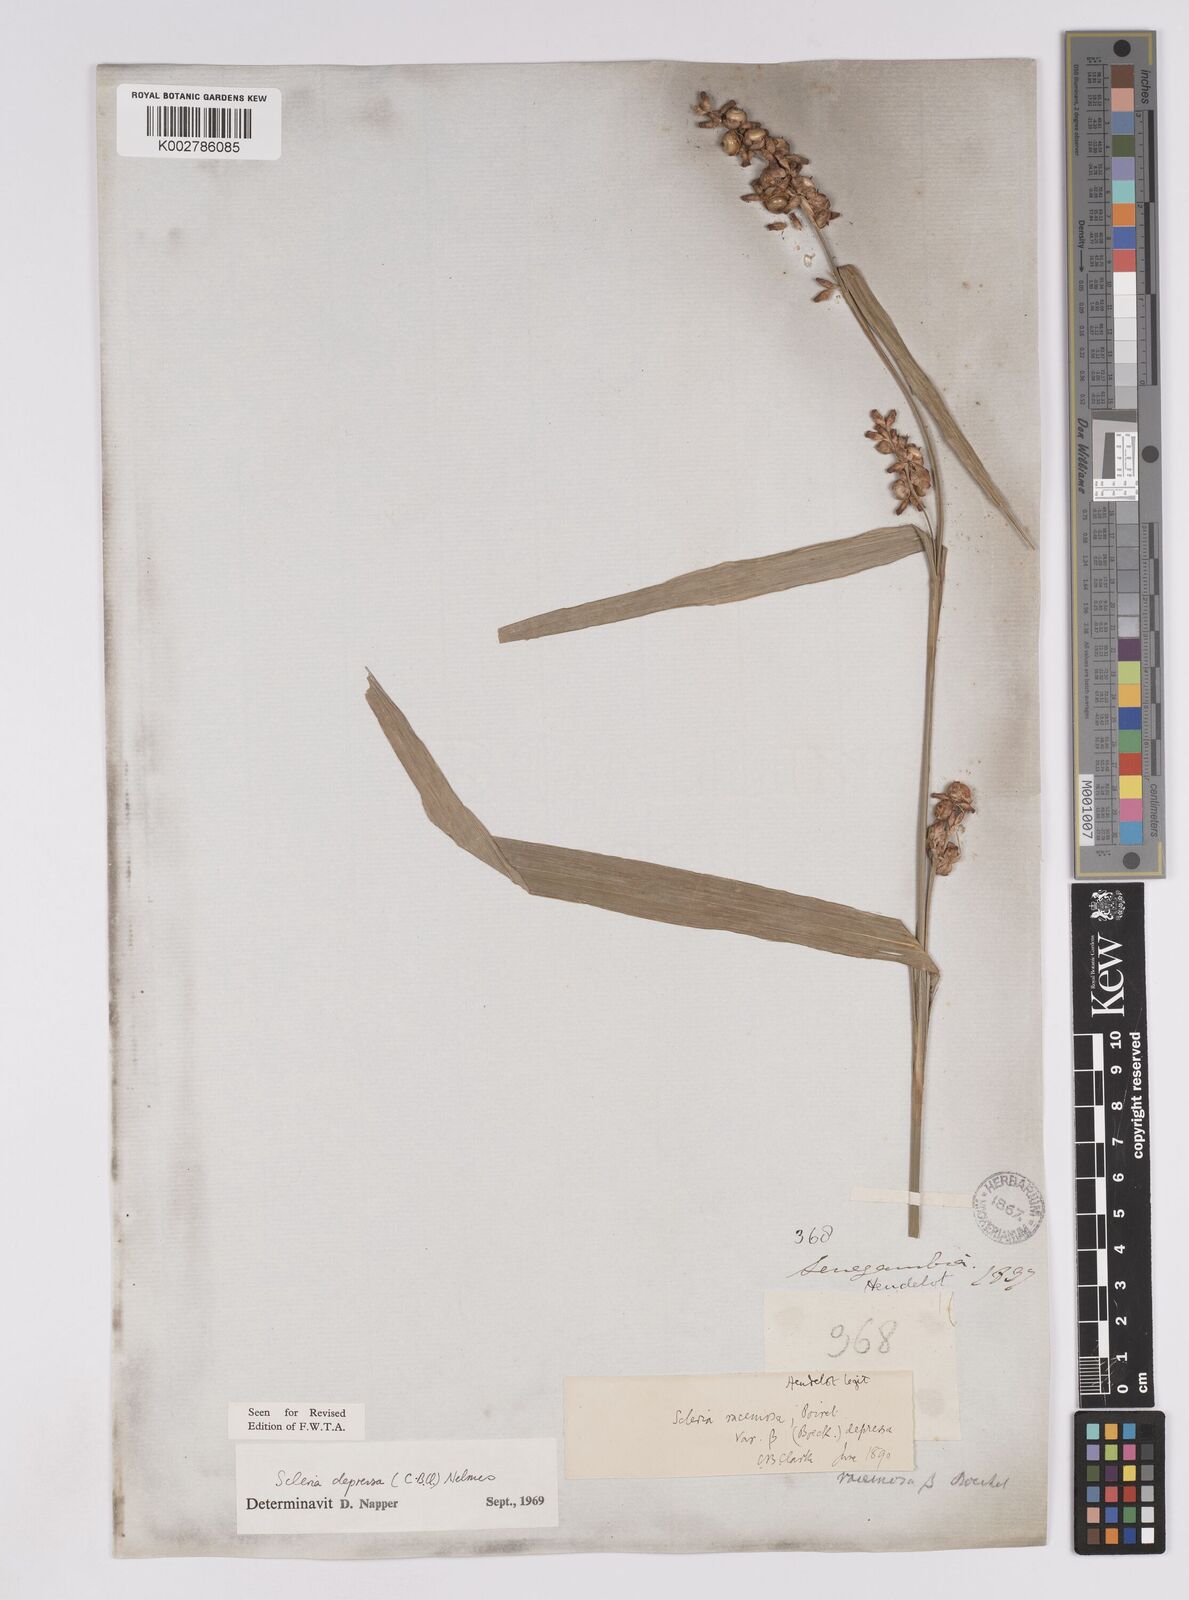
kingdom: Plantae
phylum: Tracheophyta
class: Liliopsida
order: Poales
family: Cyperaceae
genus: Scleria
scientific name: Scleria depressa
